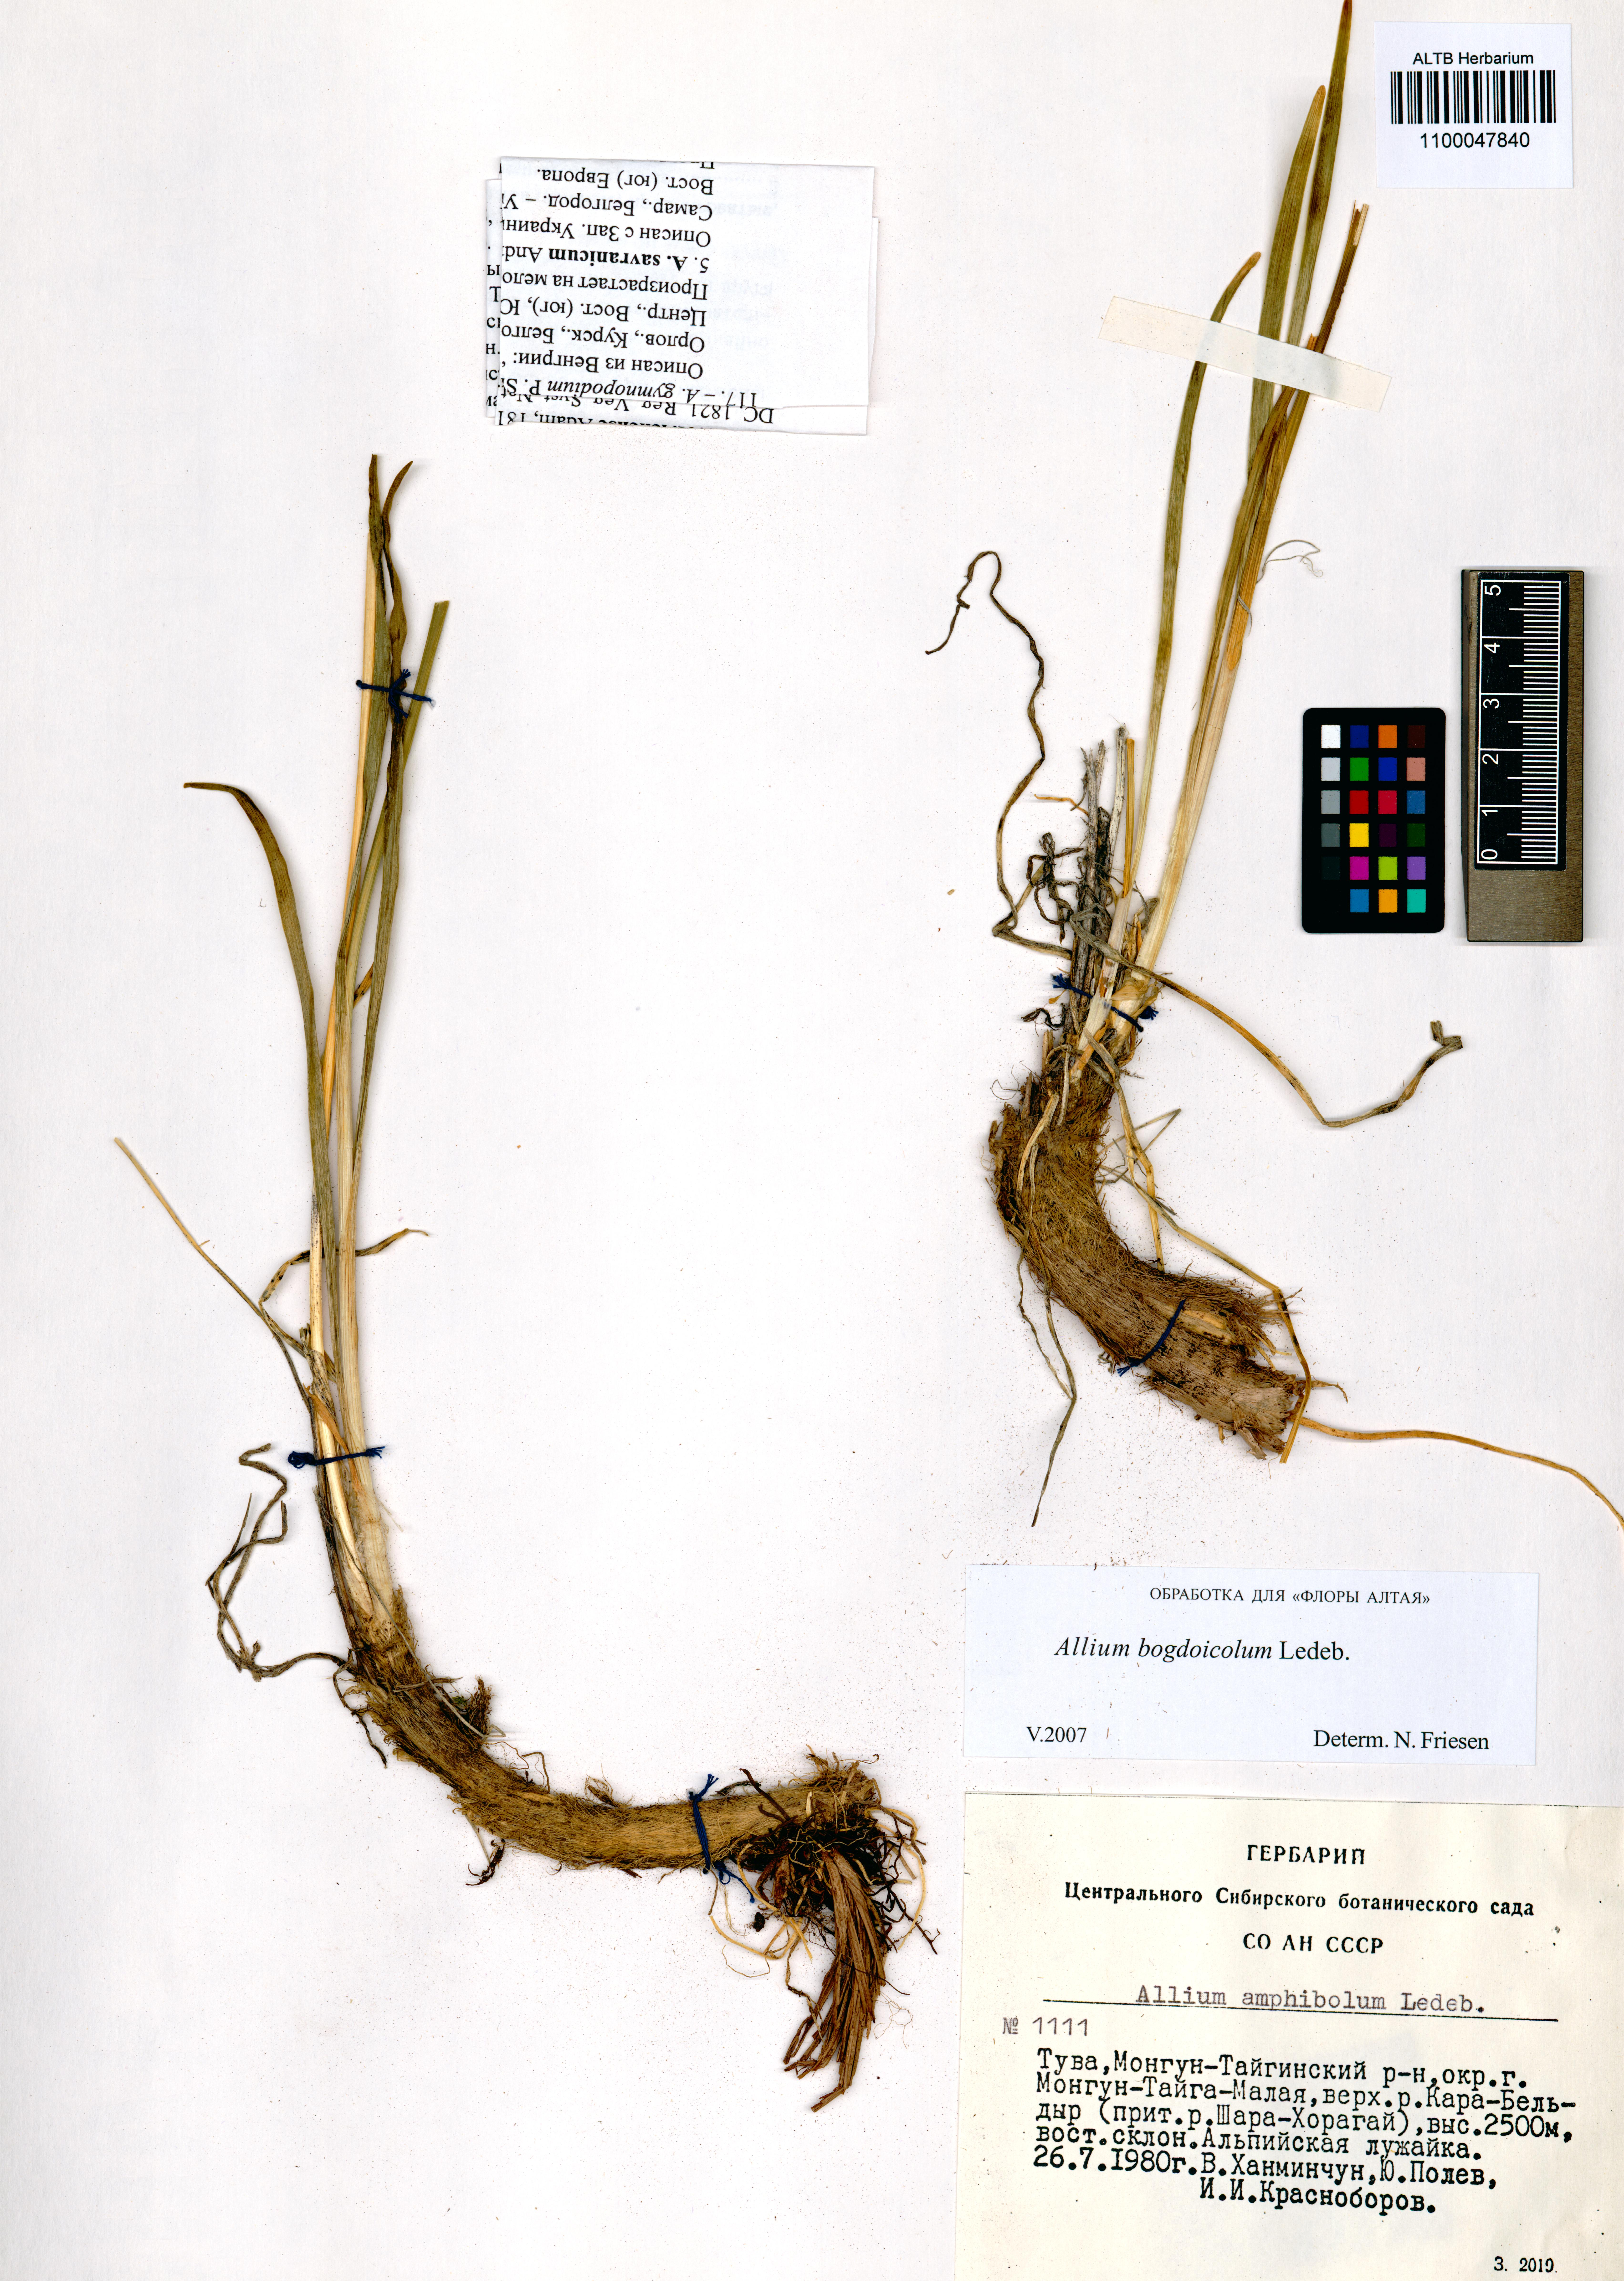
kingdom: Plantae
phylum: Tracheophyta
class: Liliopsida
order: Asparagales
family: Amaryllidaceae
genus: Allium
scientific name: Allium schrenkii
